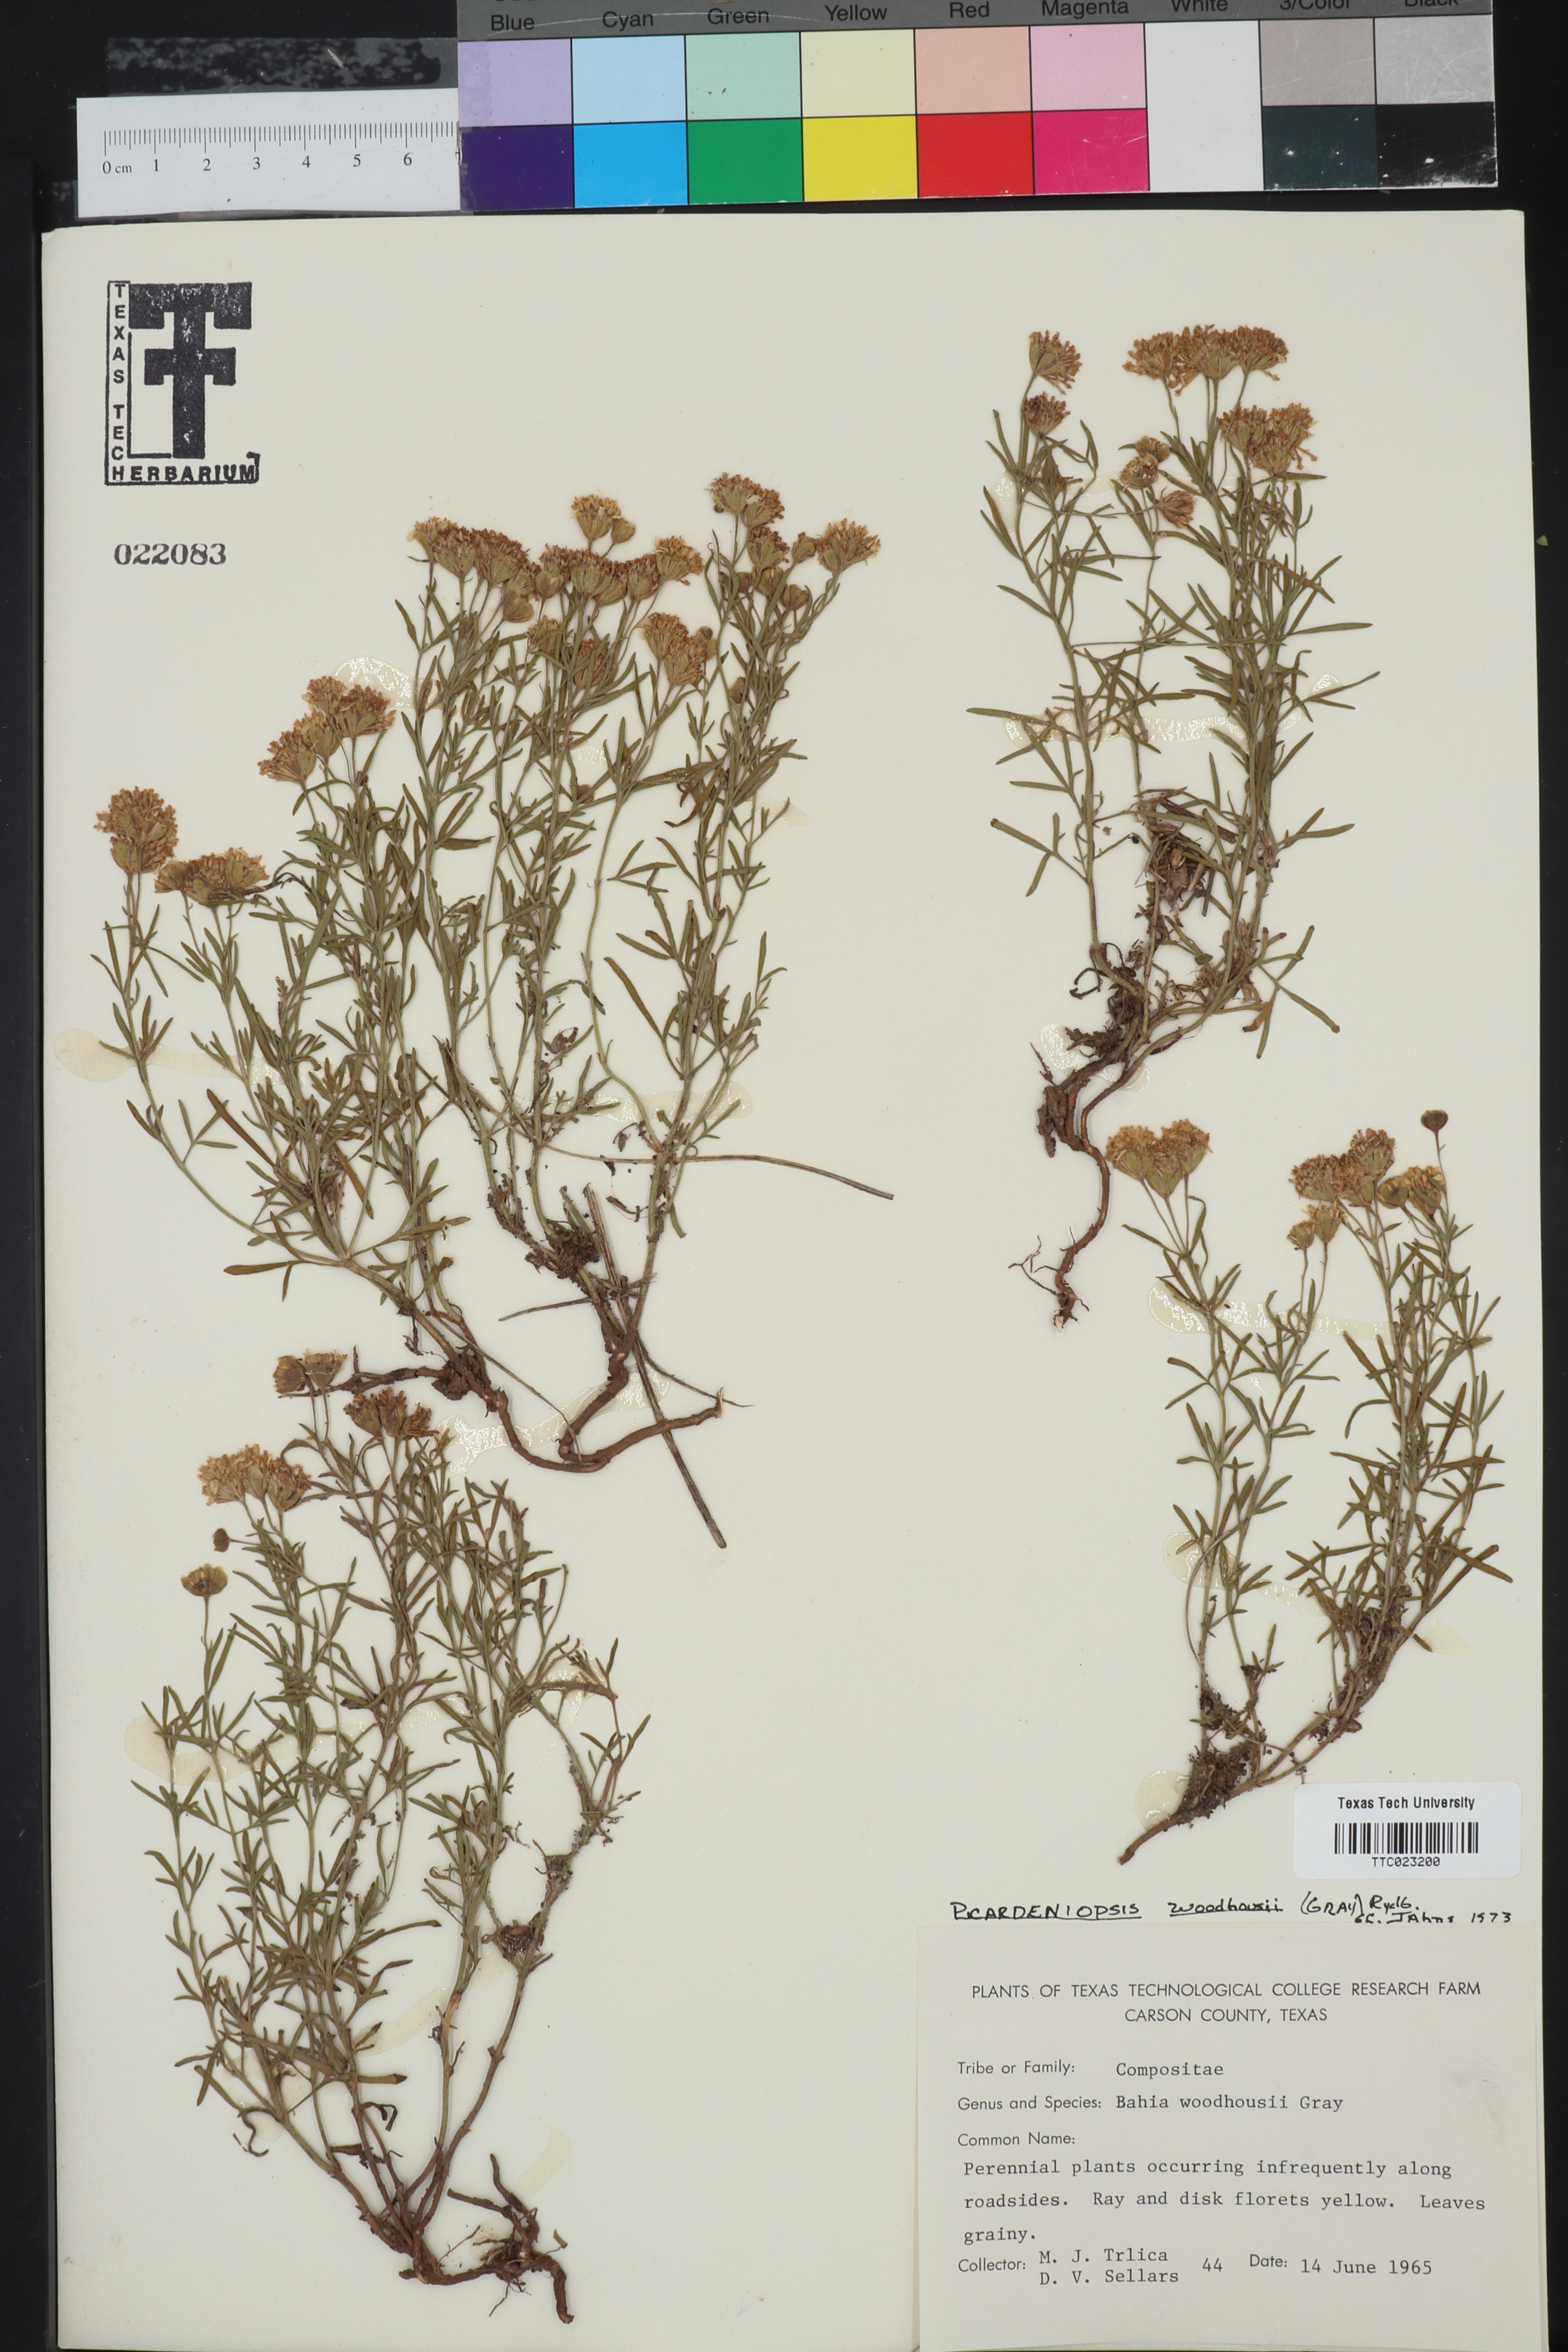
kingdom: Plantae
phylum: Tracheophyta
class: Magnoliopsida
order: Asterales
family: Asteraceae
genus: Picradeniopsis
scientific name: Picradeniopsis woodhousei
